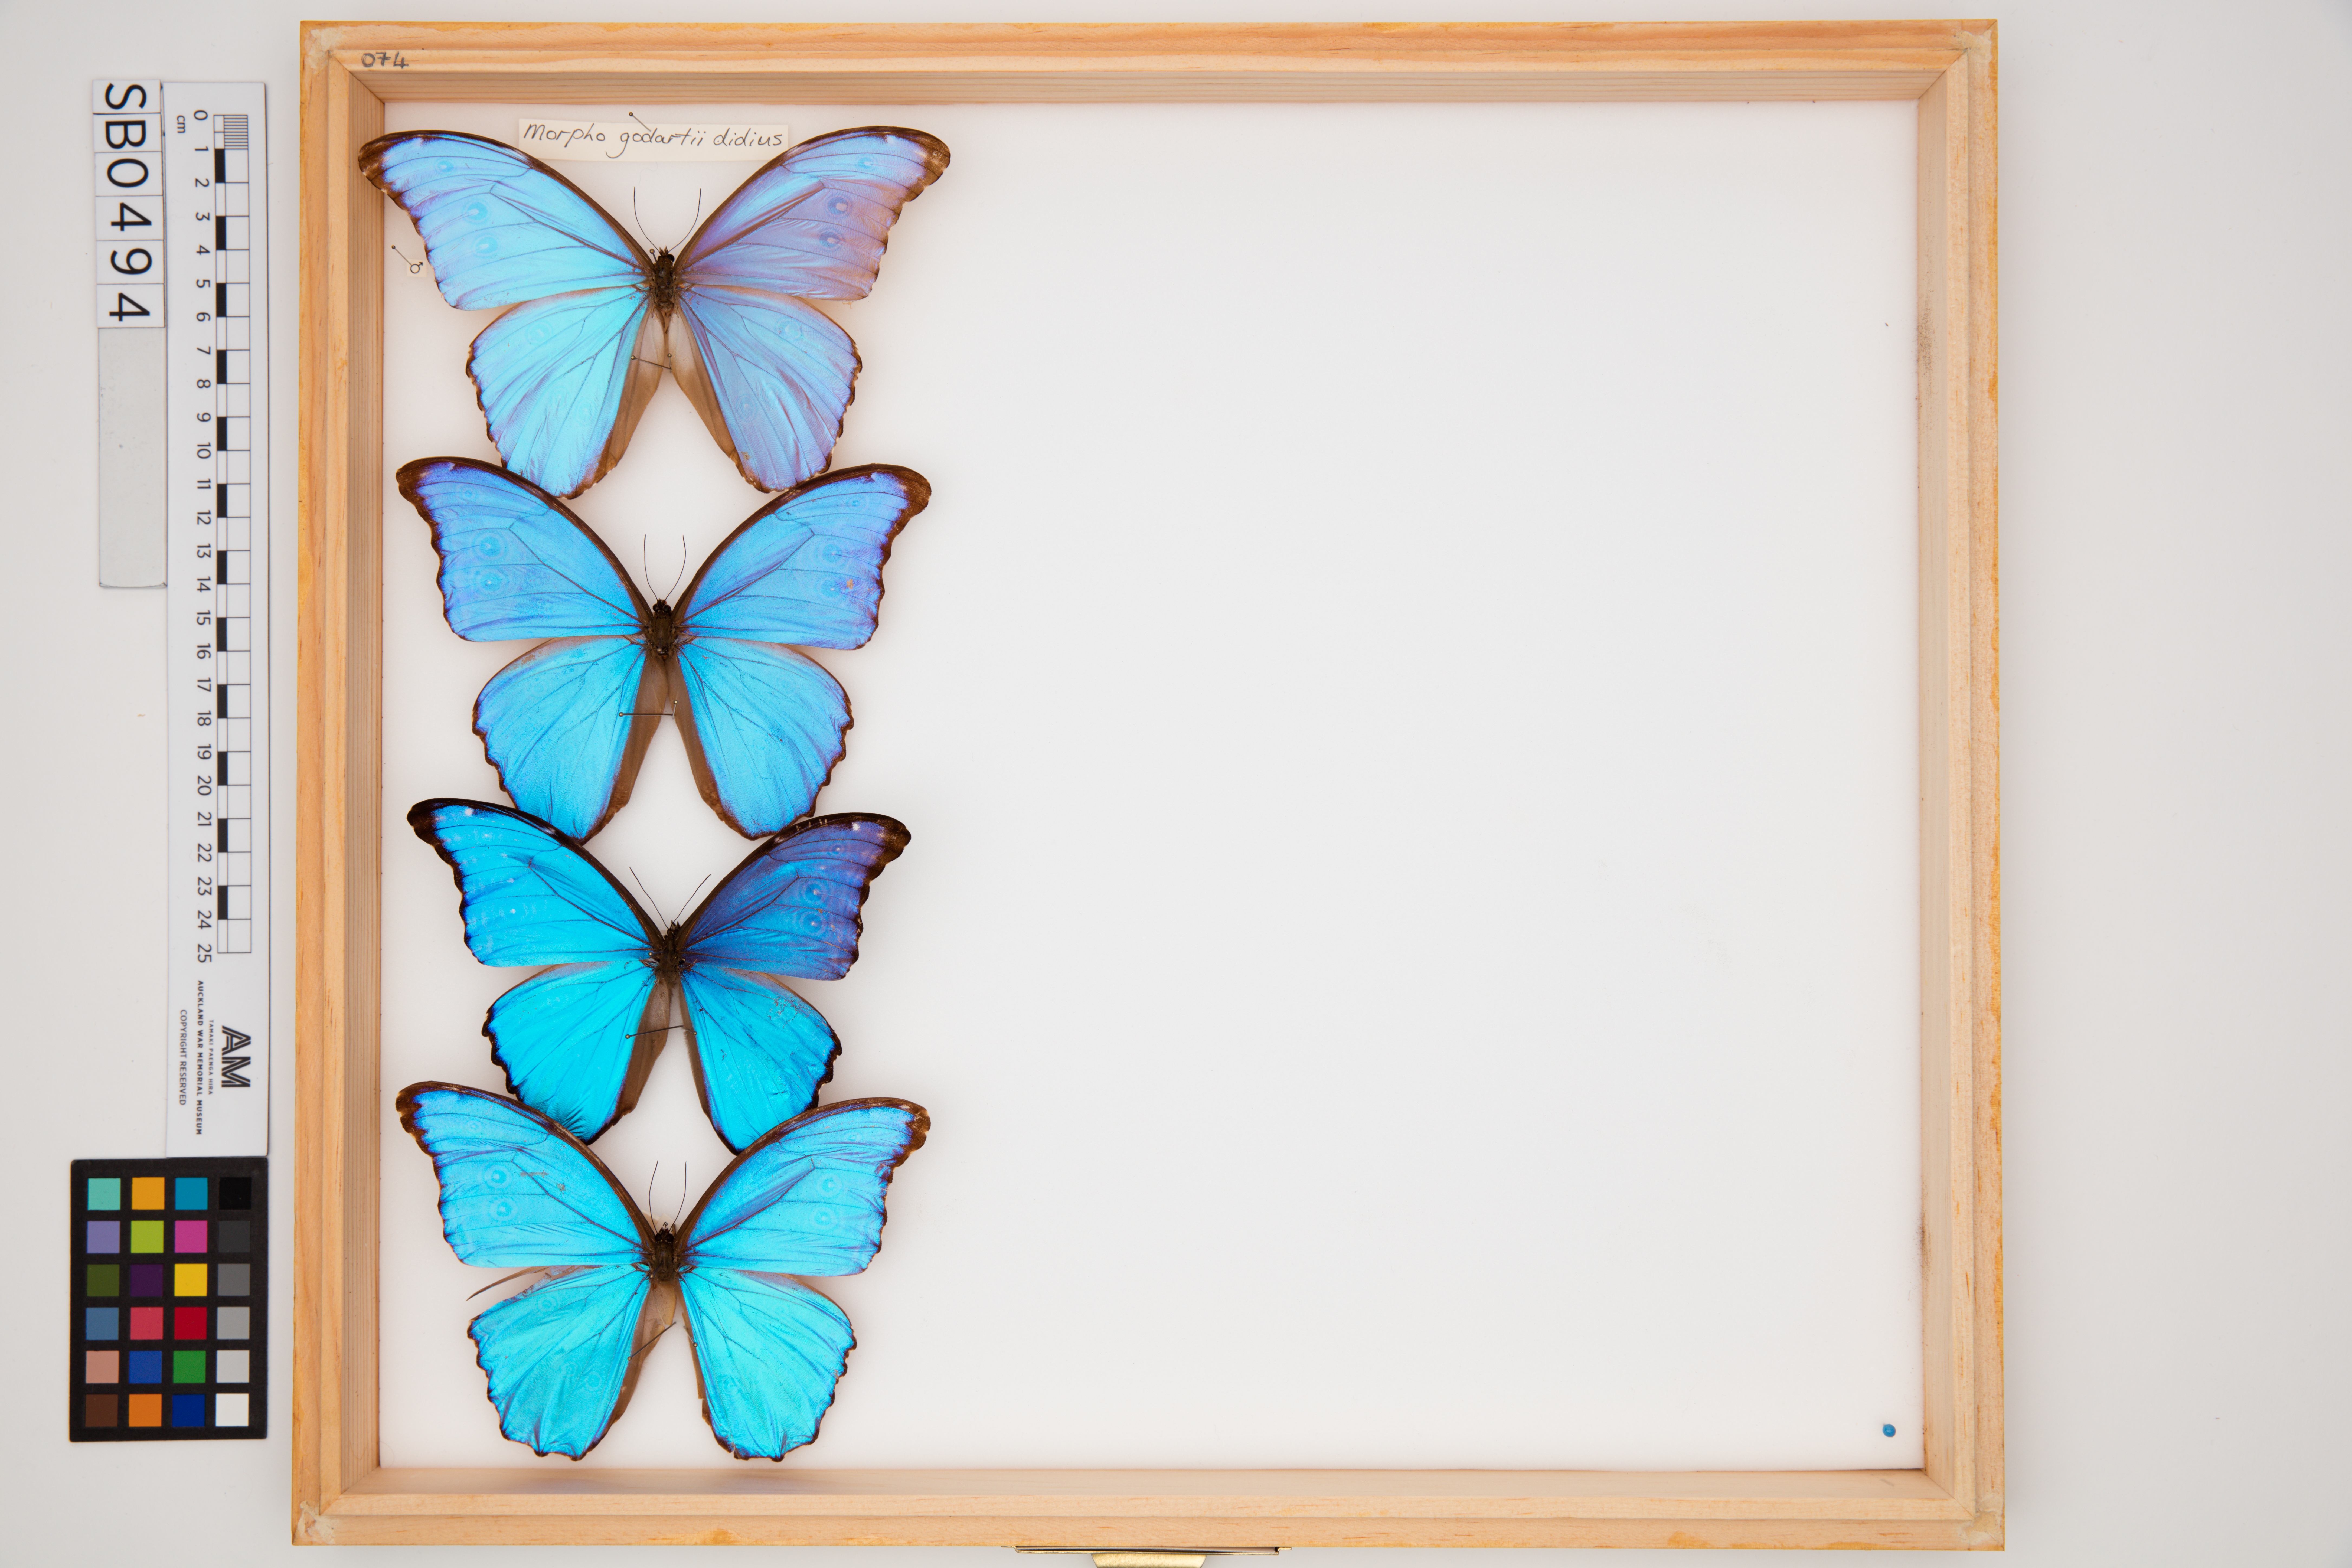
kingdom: Animalia
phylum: Arthropoda
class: Insecta
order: Lepidoptera
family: Nymphalidae
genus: Morpho
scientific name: Morpho godartii
